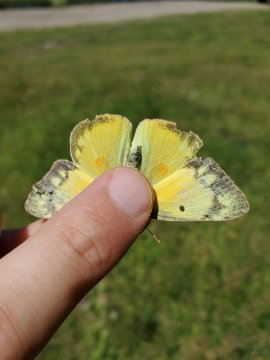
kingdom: Animalia
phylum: Arthropoda
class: Insecta
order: Lepidoptera
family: Pieridae
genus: Colias
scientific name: Colias eurytheme
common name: Orange Sulphur
